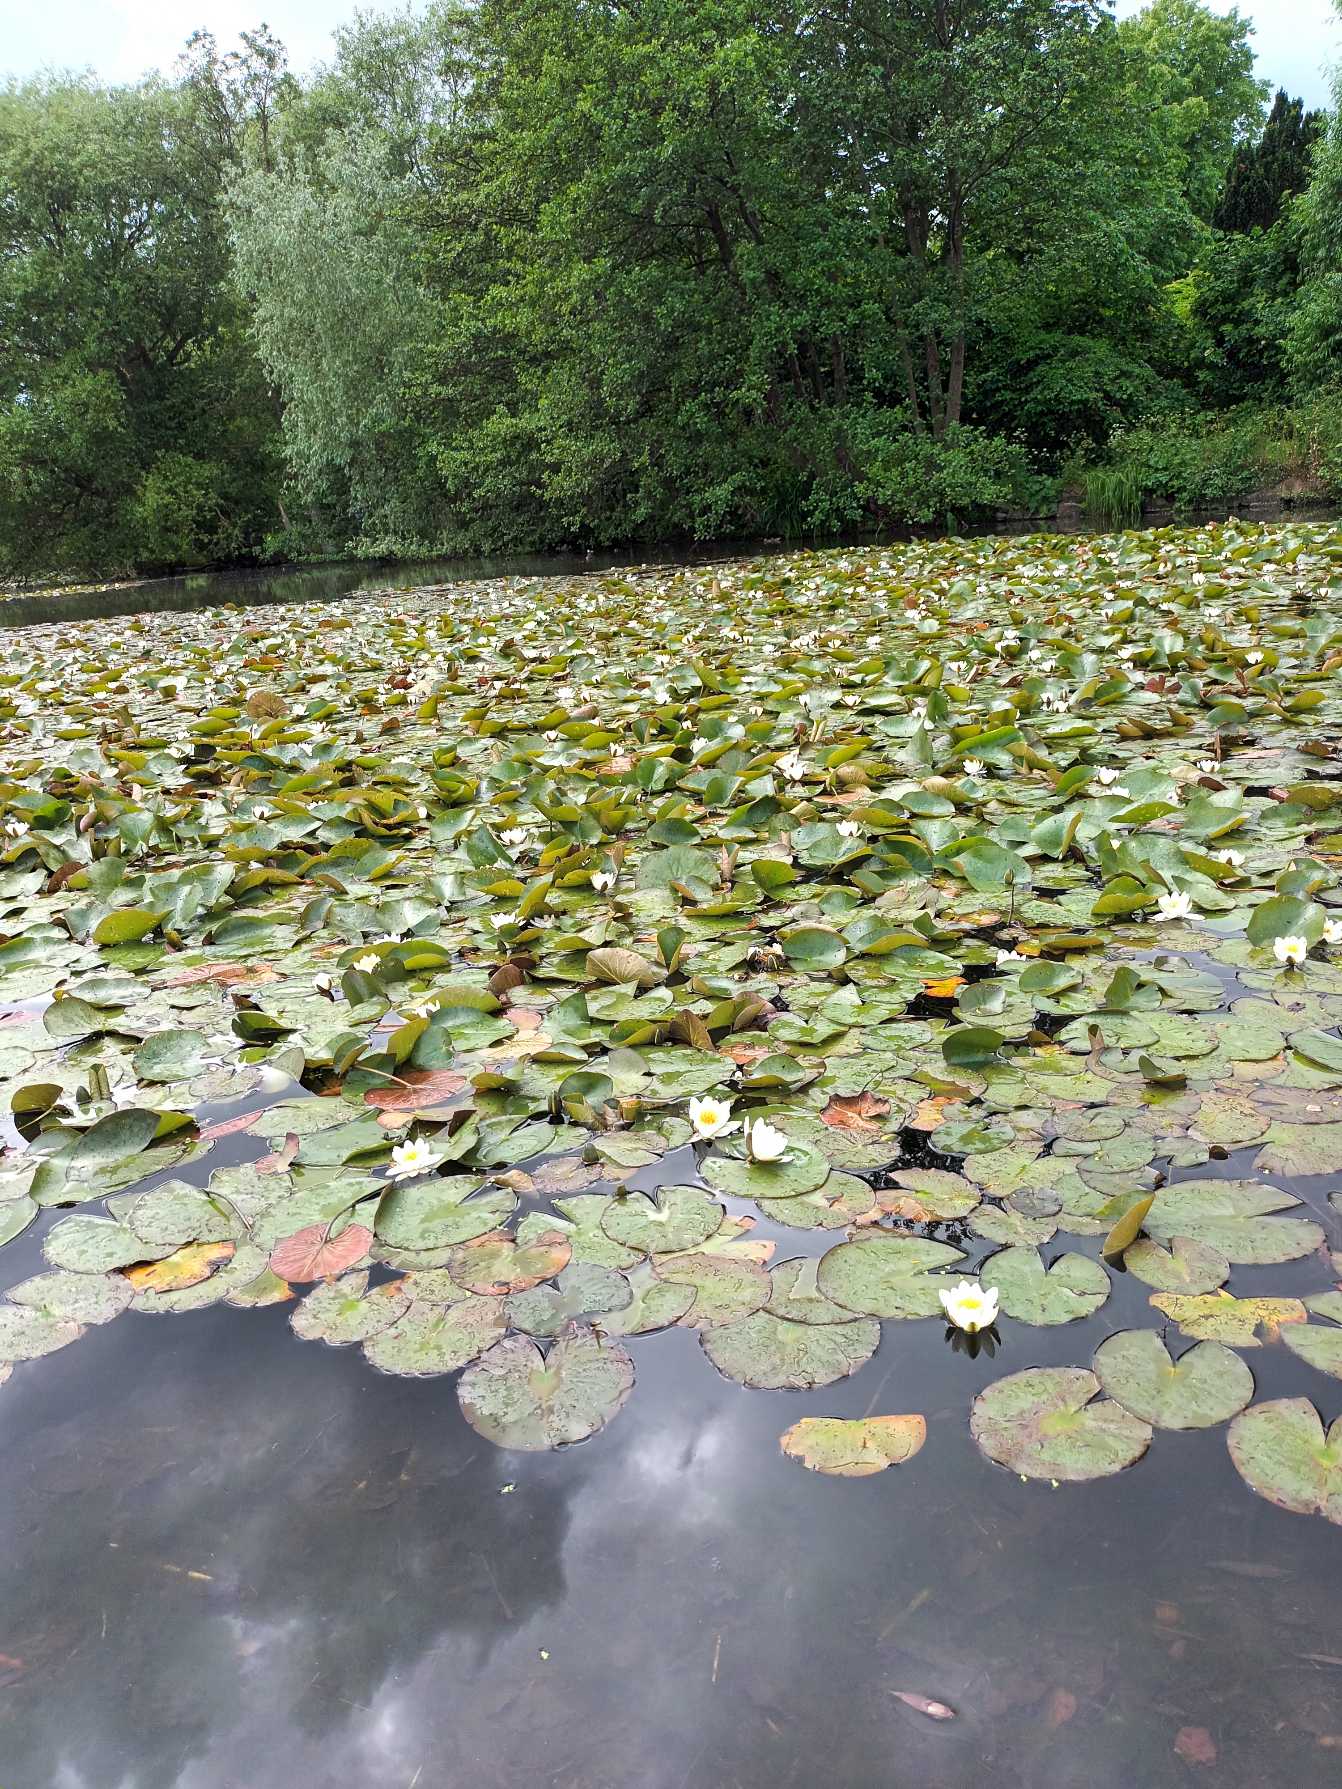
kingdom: Plantae
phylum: Tracheophyta
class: Magnoliopsida
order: Nymphaeales
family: Nymphaeaceae
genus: Nymphaea
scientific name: Nymphaea alba
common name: Hvid åkande
